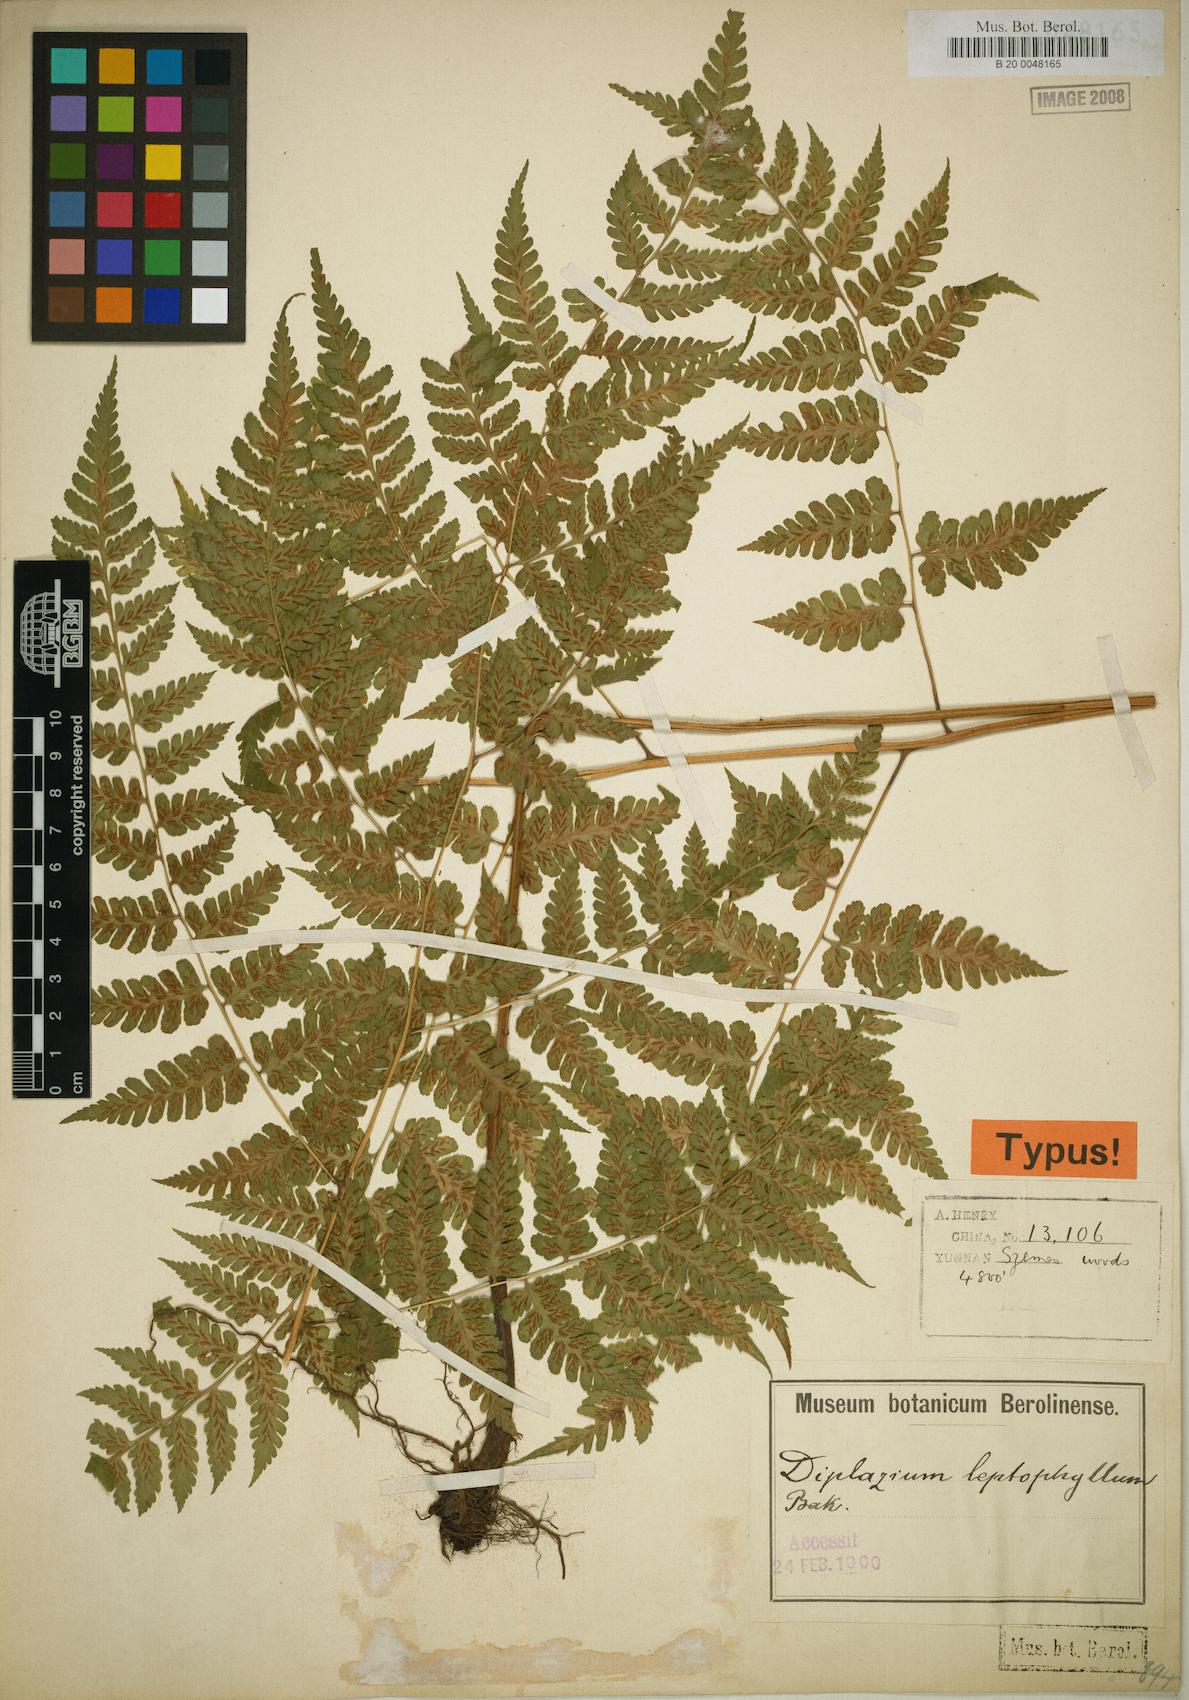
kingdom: Plantae
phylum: Tracheophyta
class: Polypodiopsida
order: Polypodiales
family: Athyriaceae
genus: Diplazium
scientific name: Diplazium leptophyllum
